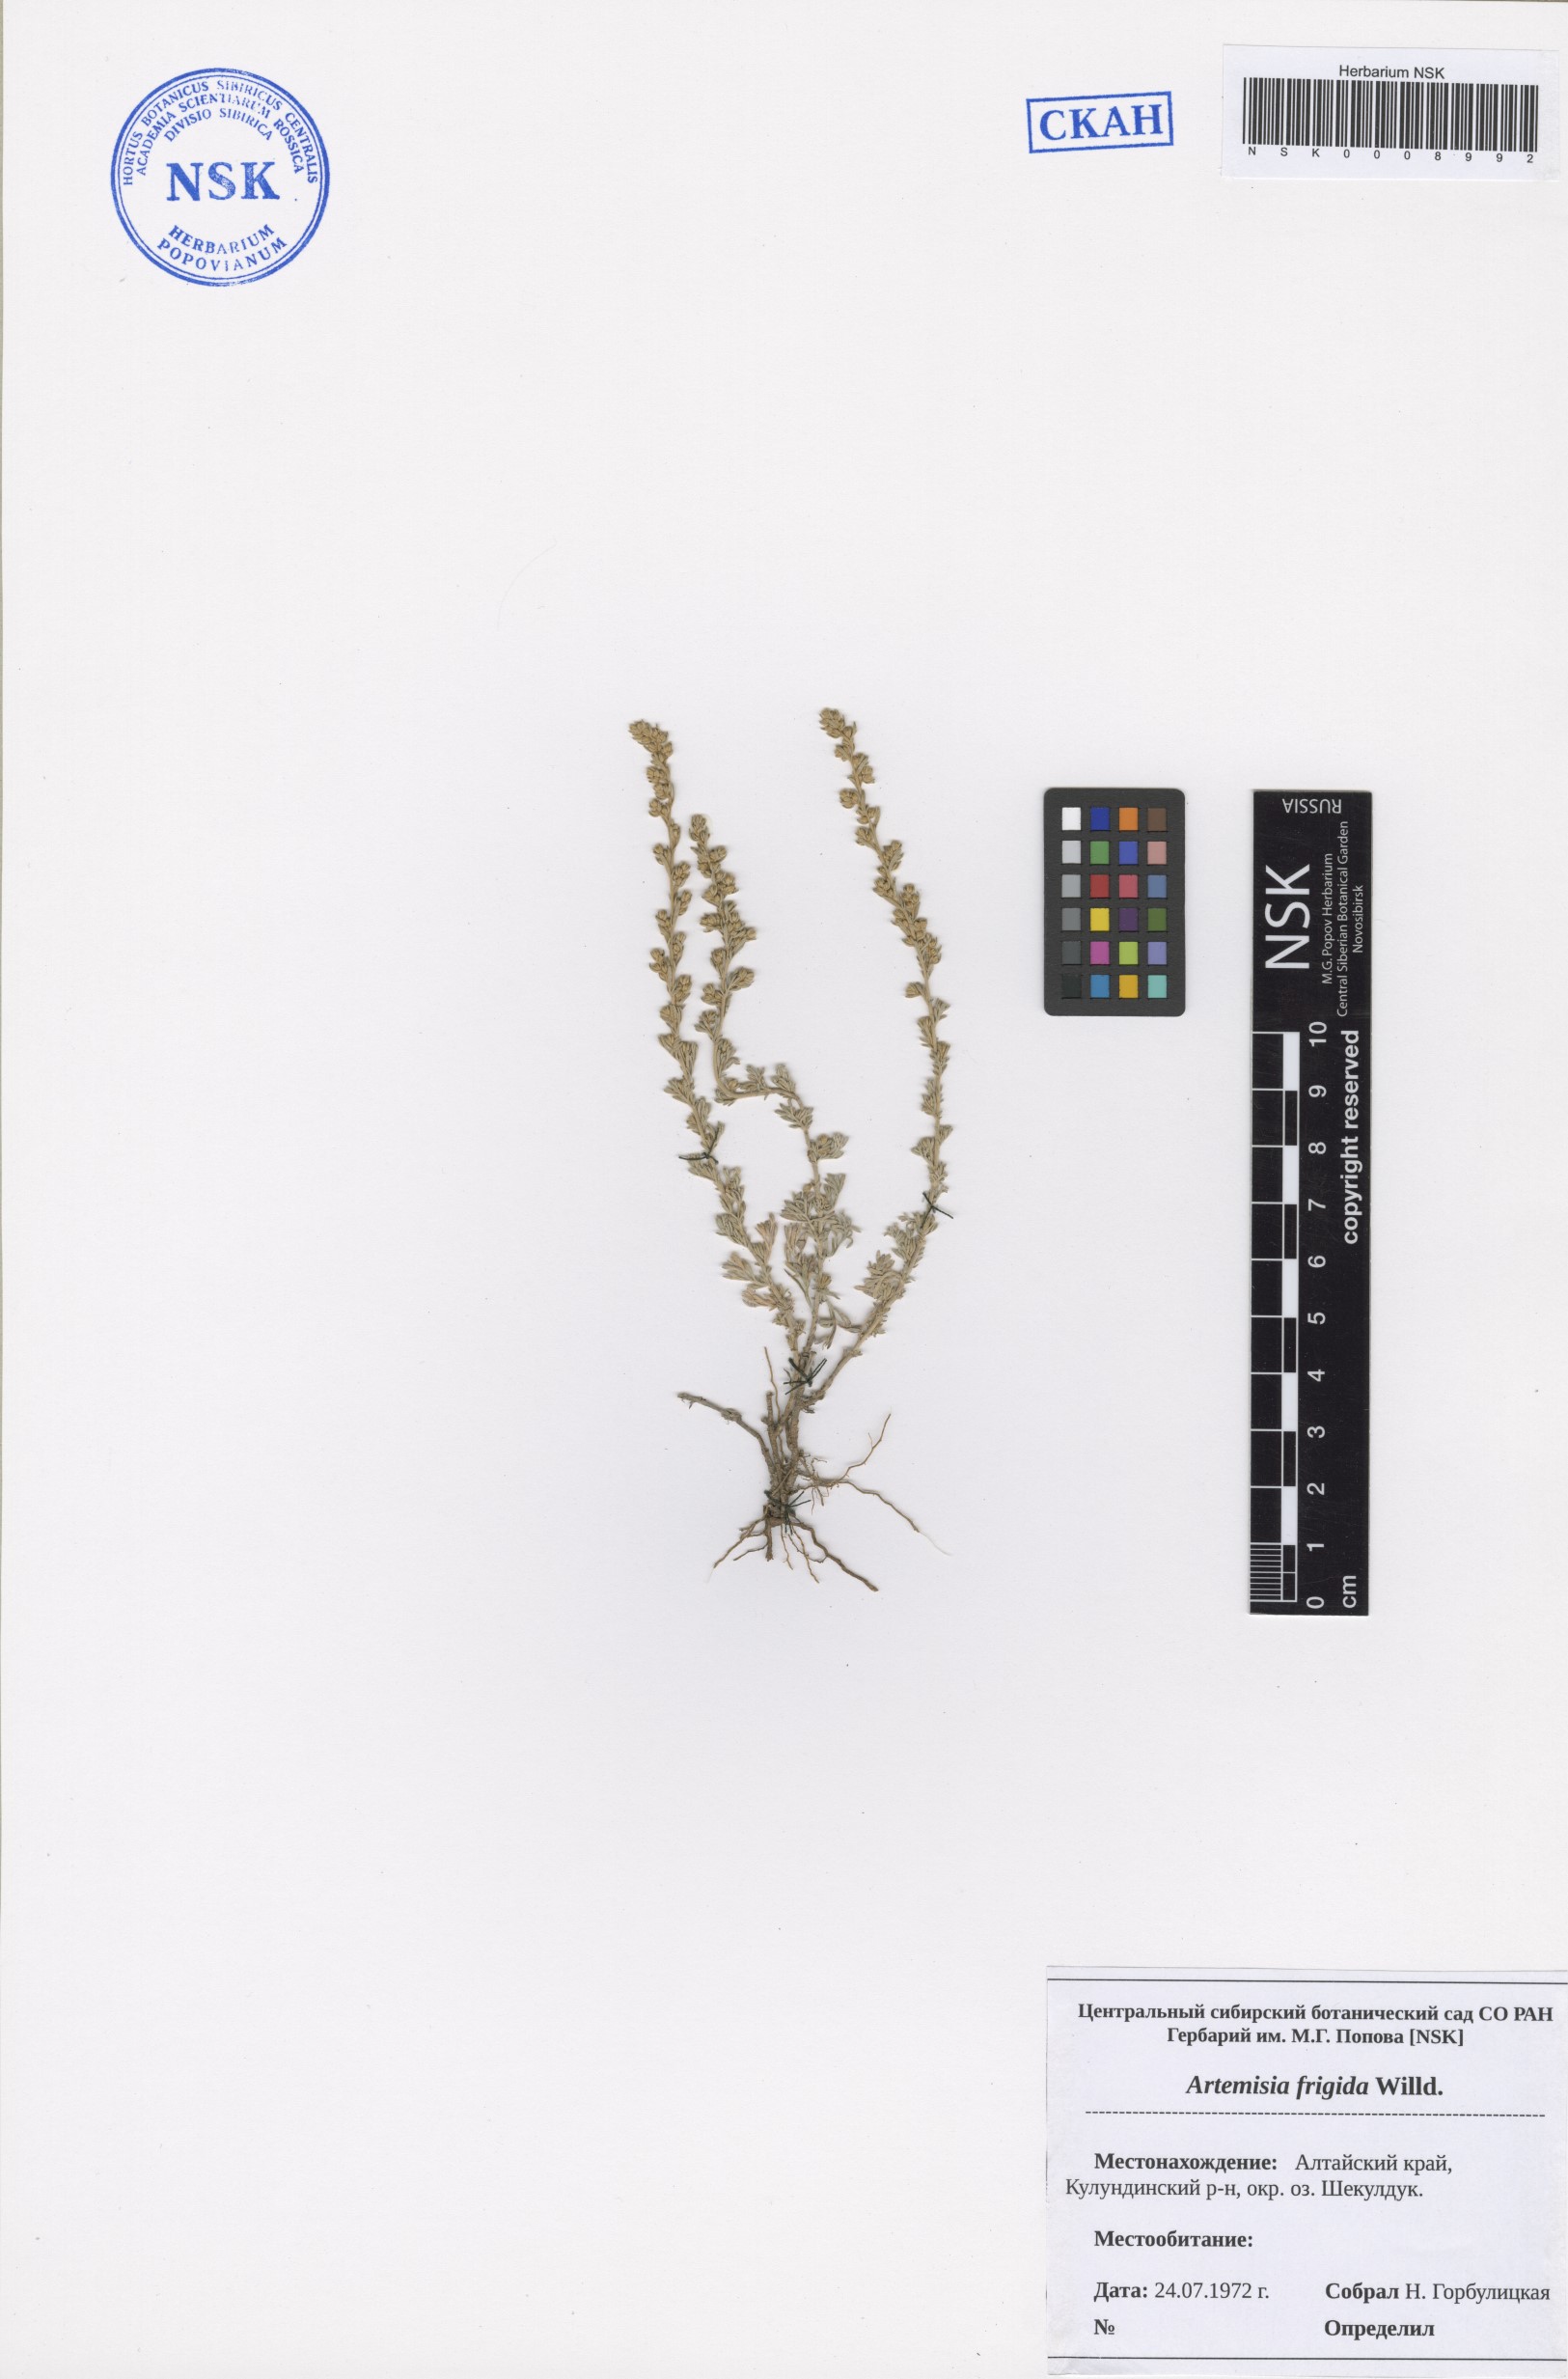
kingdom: Plantae
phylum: Tracheophyta
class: Magnoliopsida
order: Asterales
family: Asteraceae
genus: Artemisia
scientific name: Artemisia frigida
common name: Prairie sagewort
